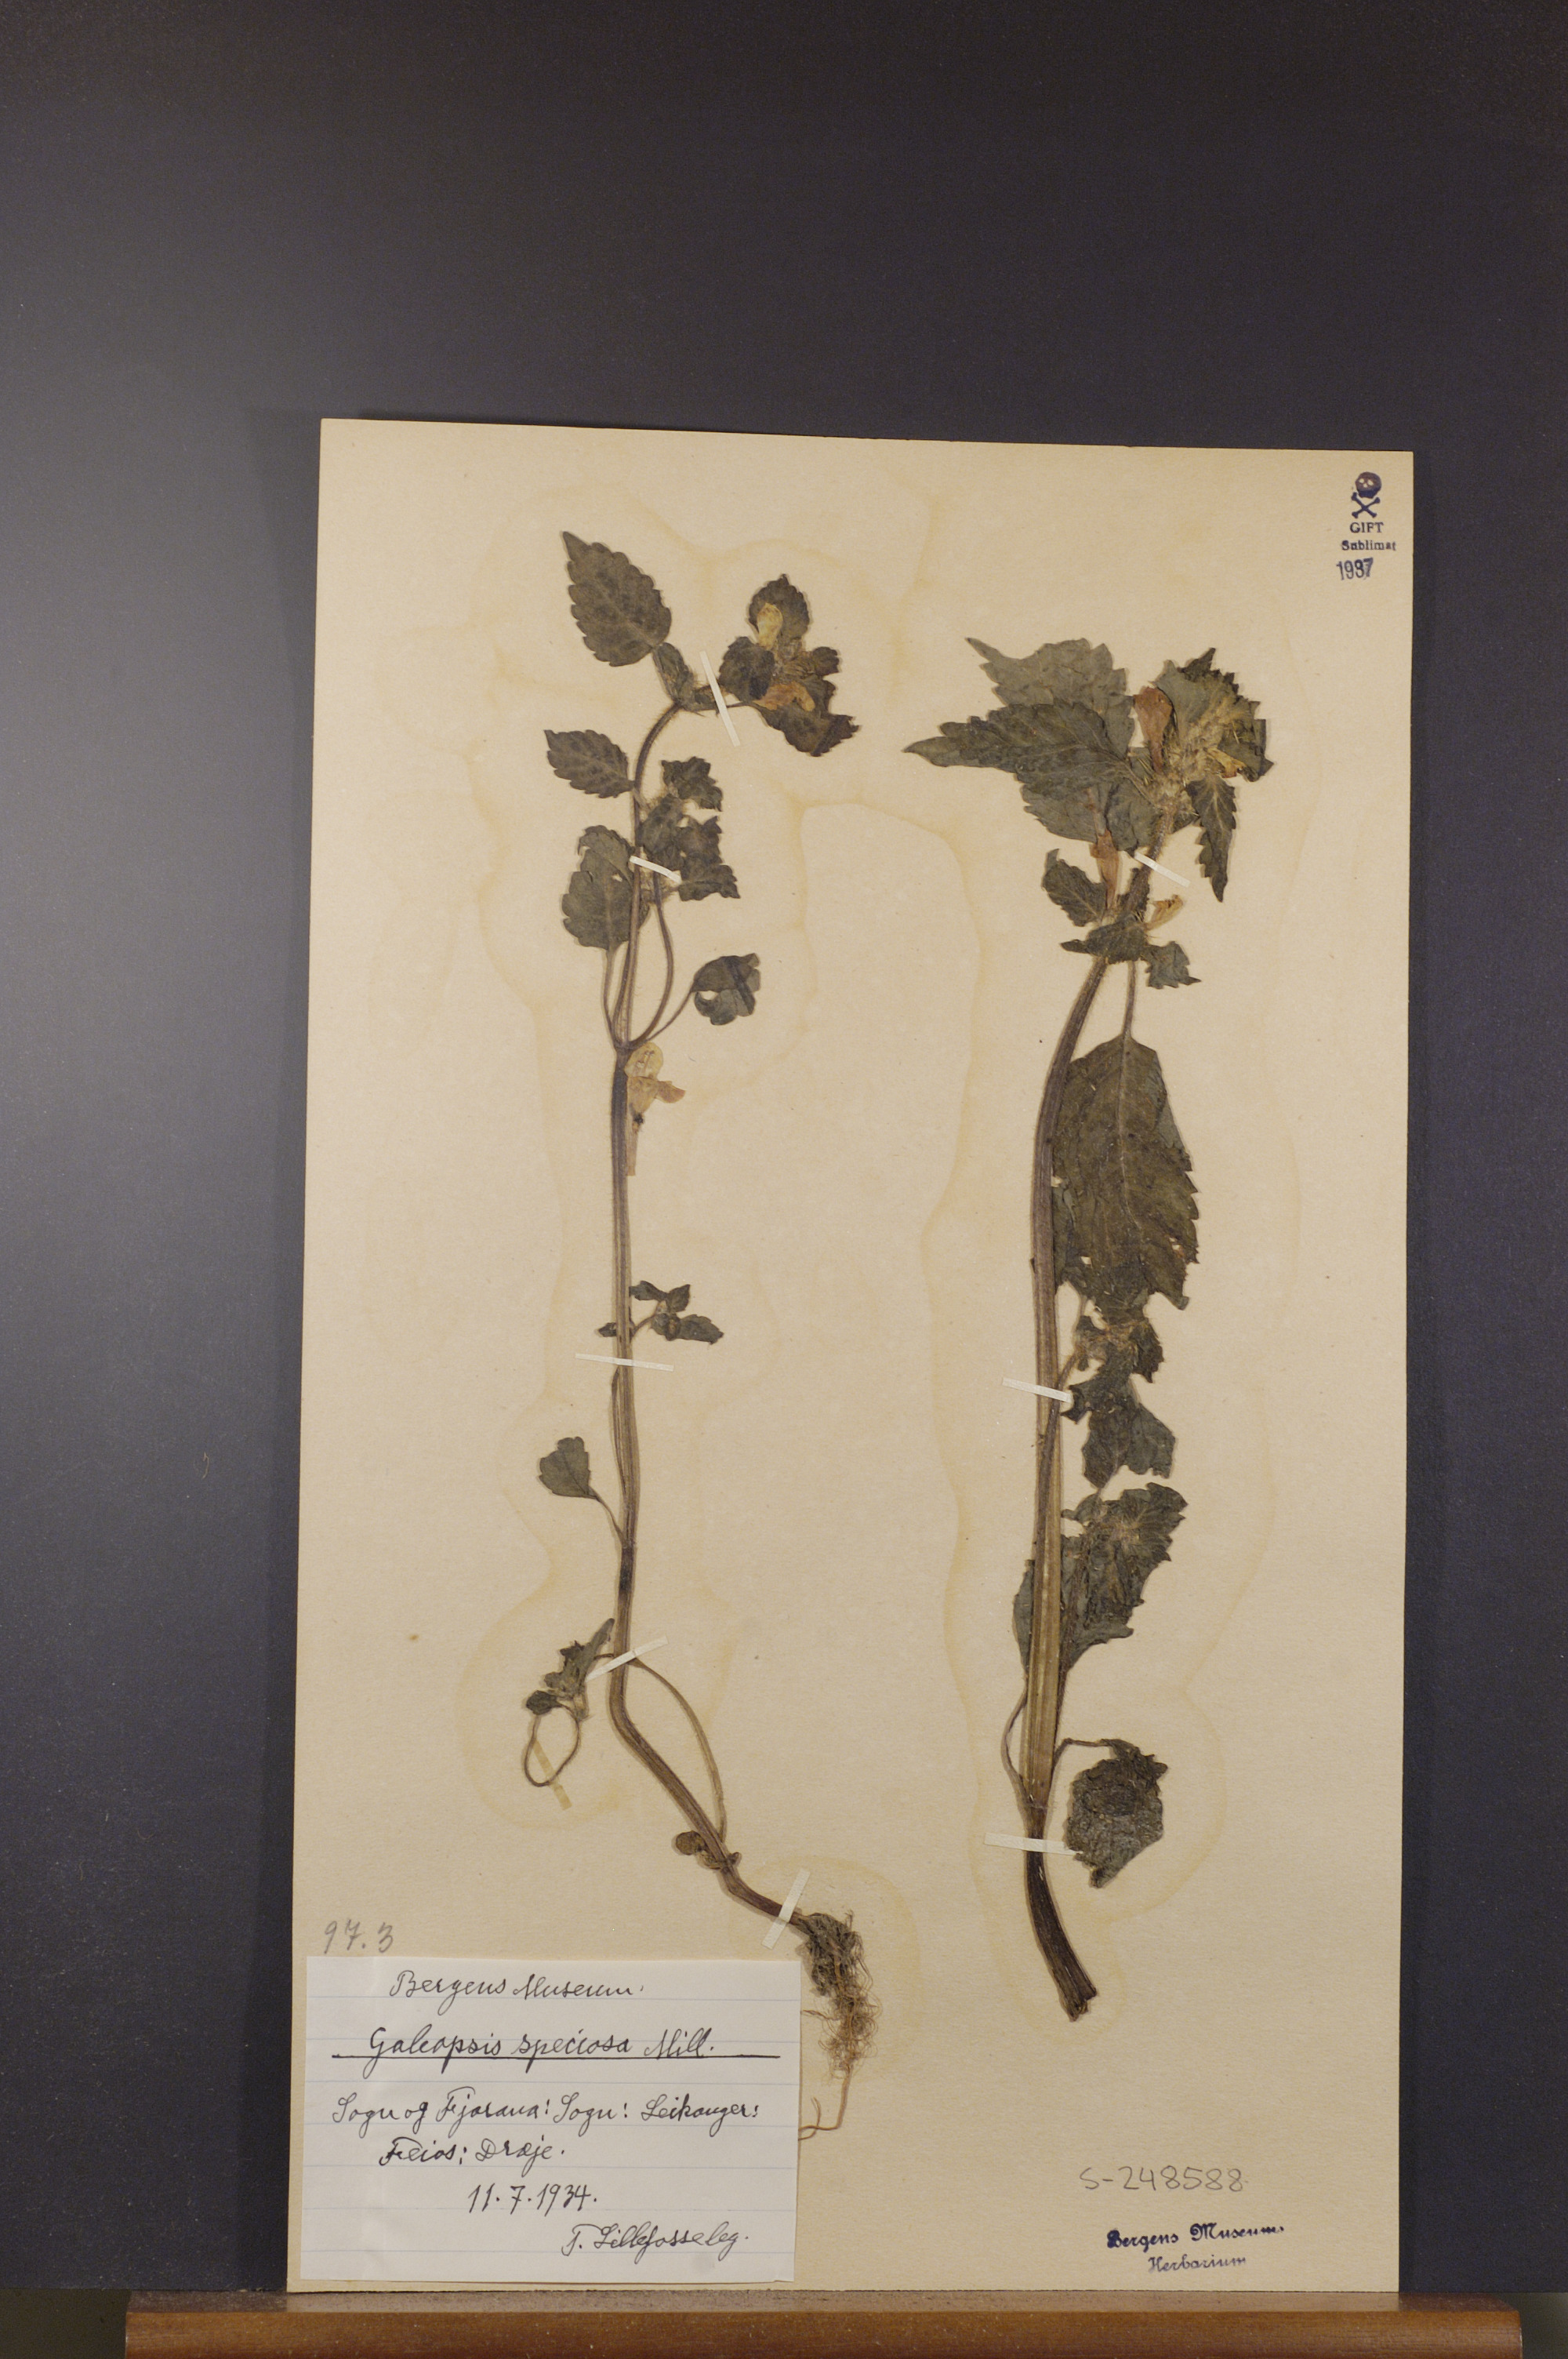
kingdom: Plantae
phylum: Tracheophyta
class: Magnoliopsida
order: Lamiales
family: Lamiaceae
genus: Galeopsis
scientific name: Galeopsis speciosa
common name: Large-flowered hemp-nettle
